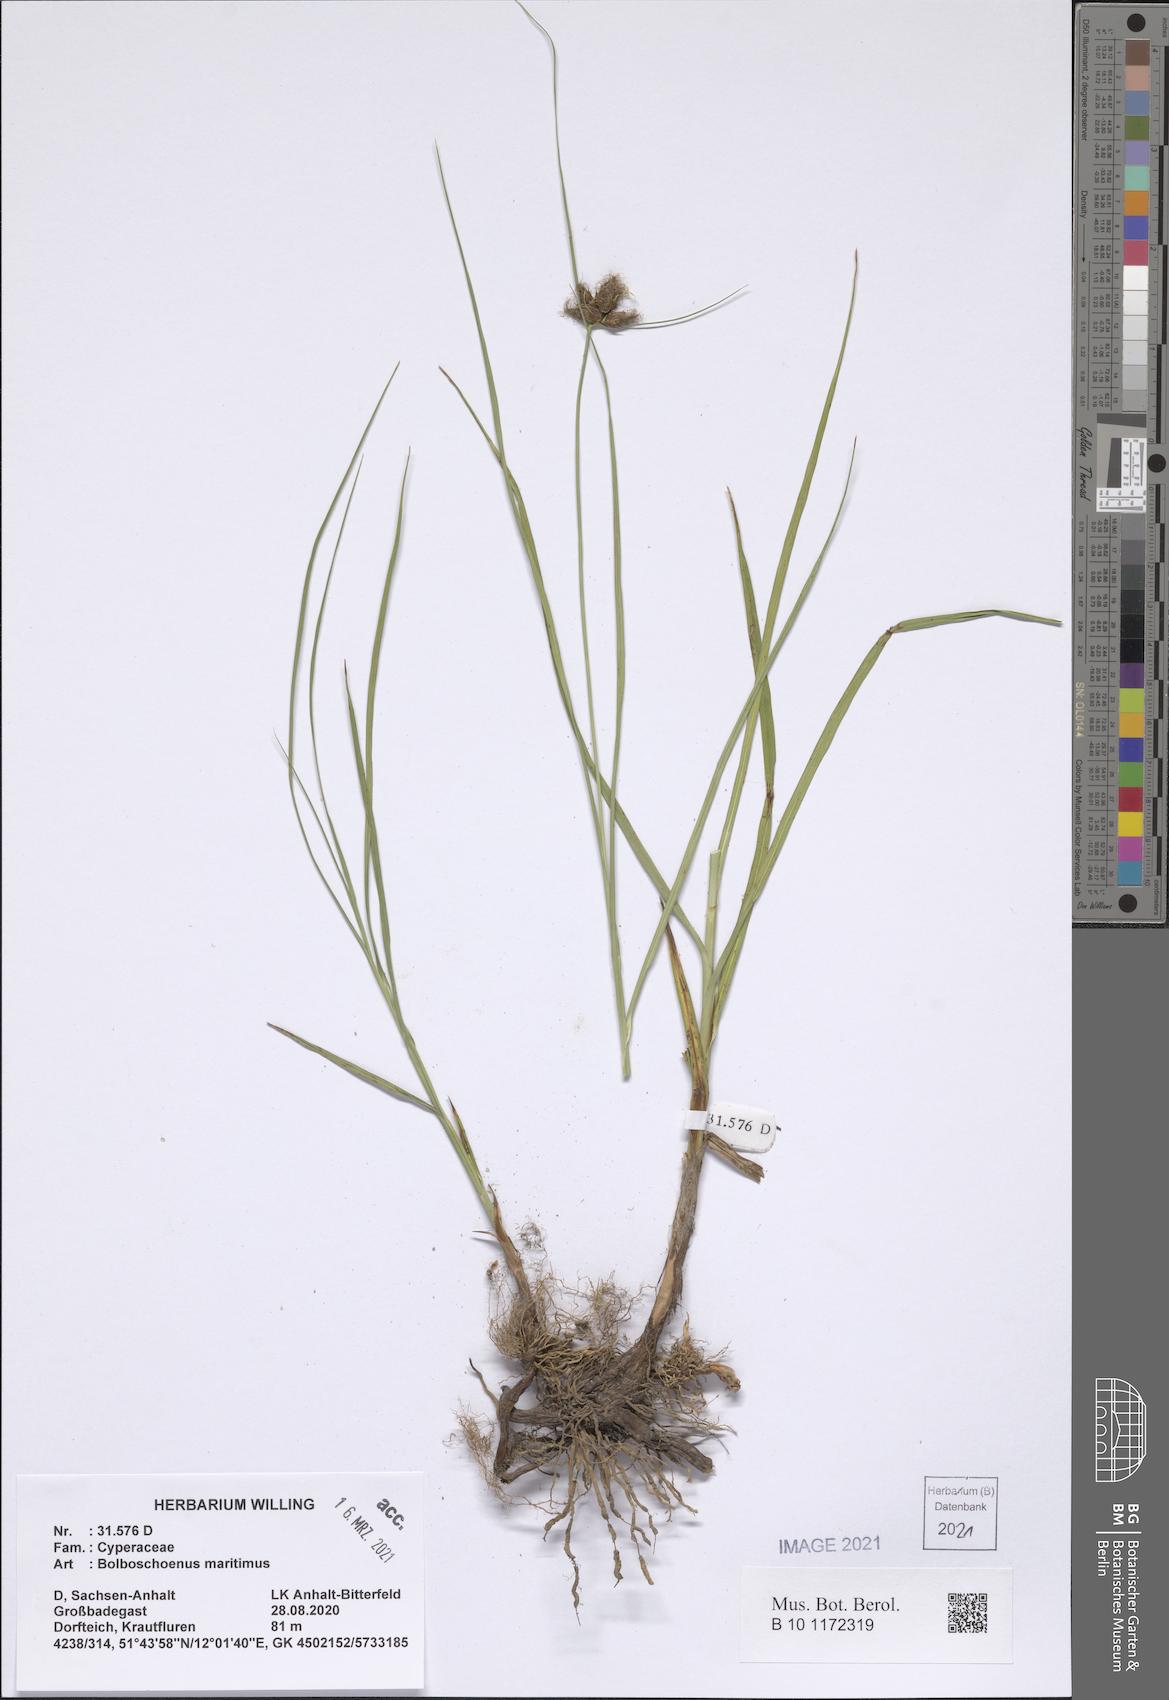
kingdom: Plantae
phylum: Tracheophyta
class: Liliopsida
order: Poales
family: Cyperaceae
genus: Bolboschoenus
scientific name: Bolboschoenus maritimus
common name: Sea club-rush
